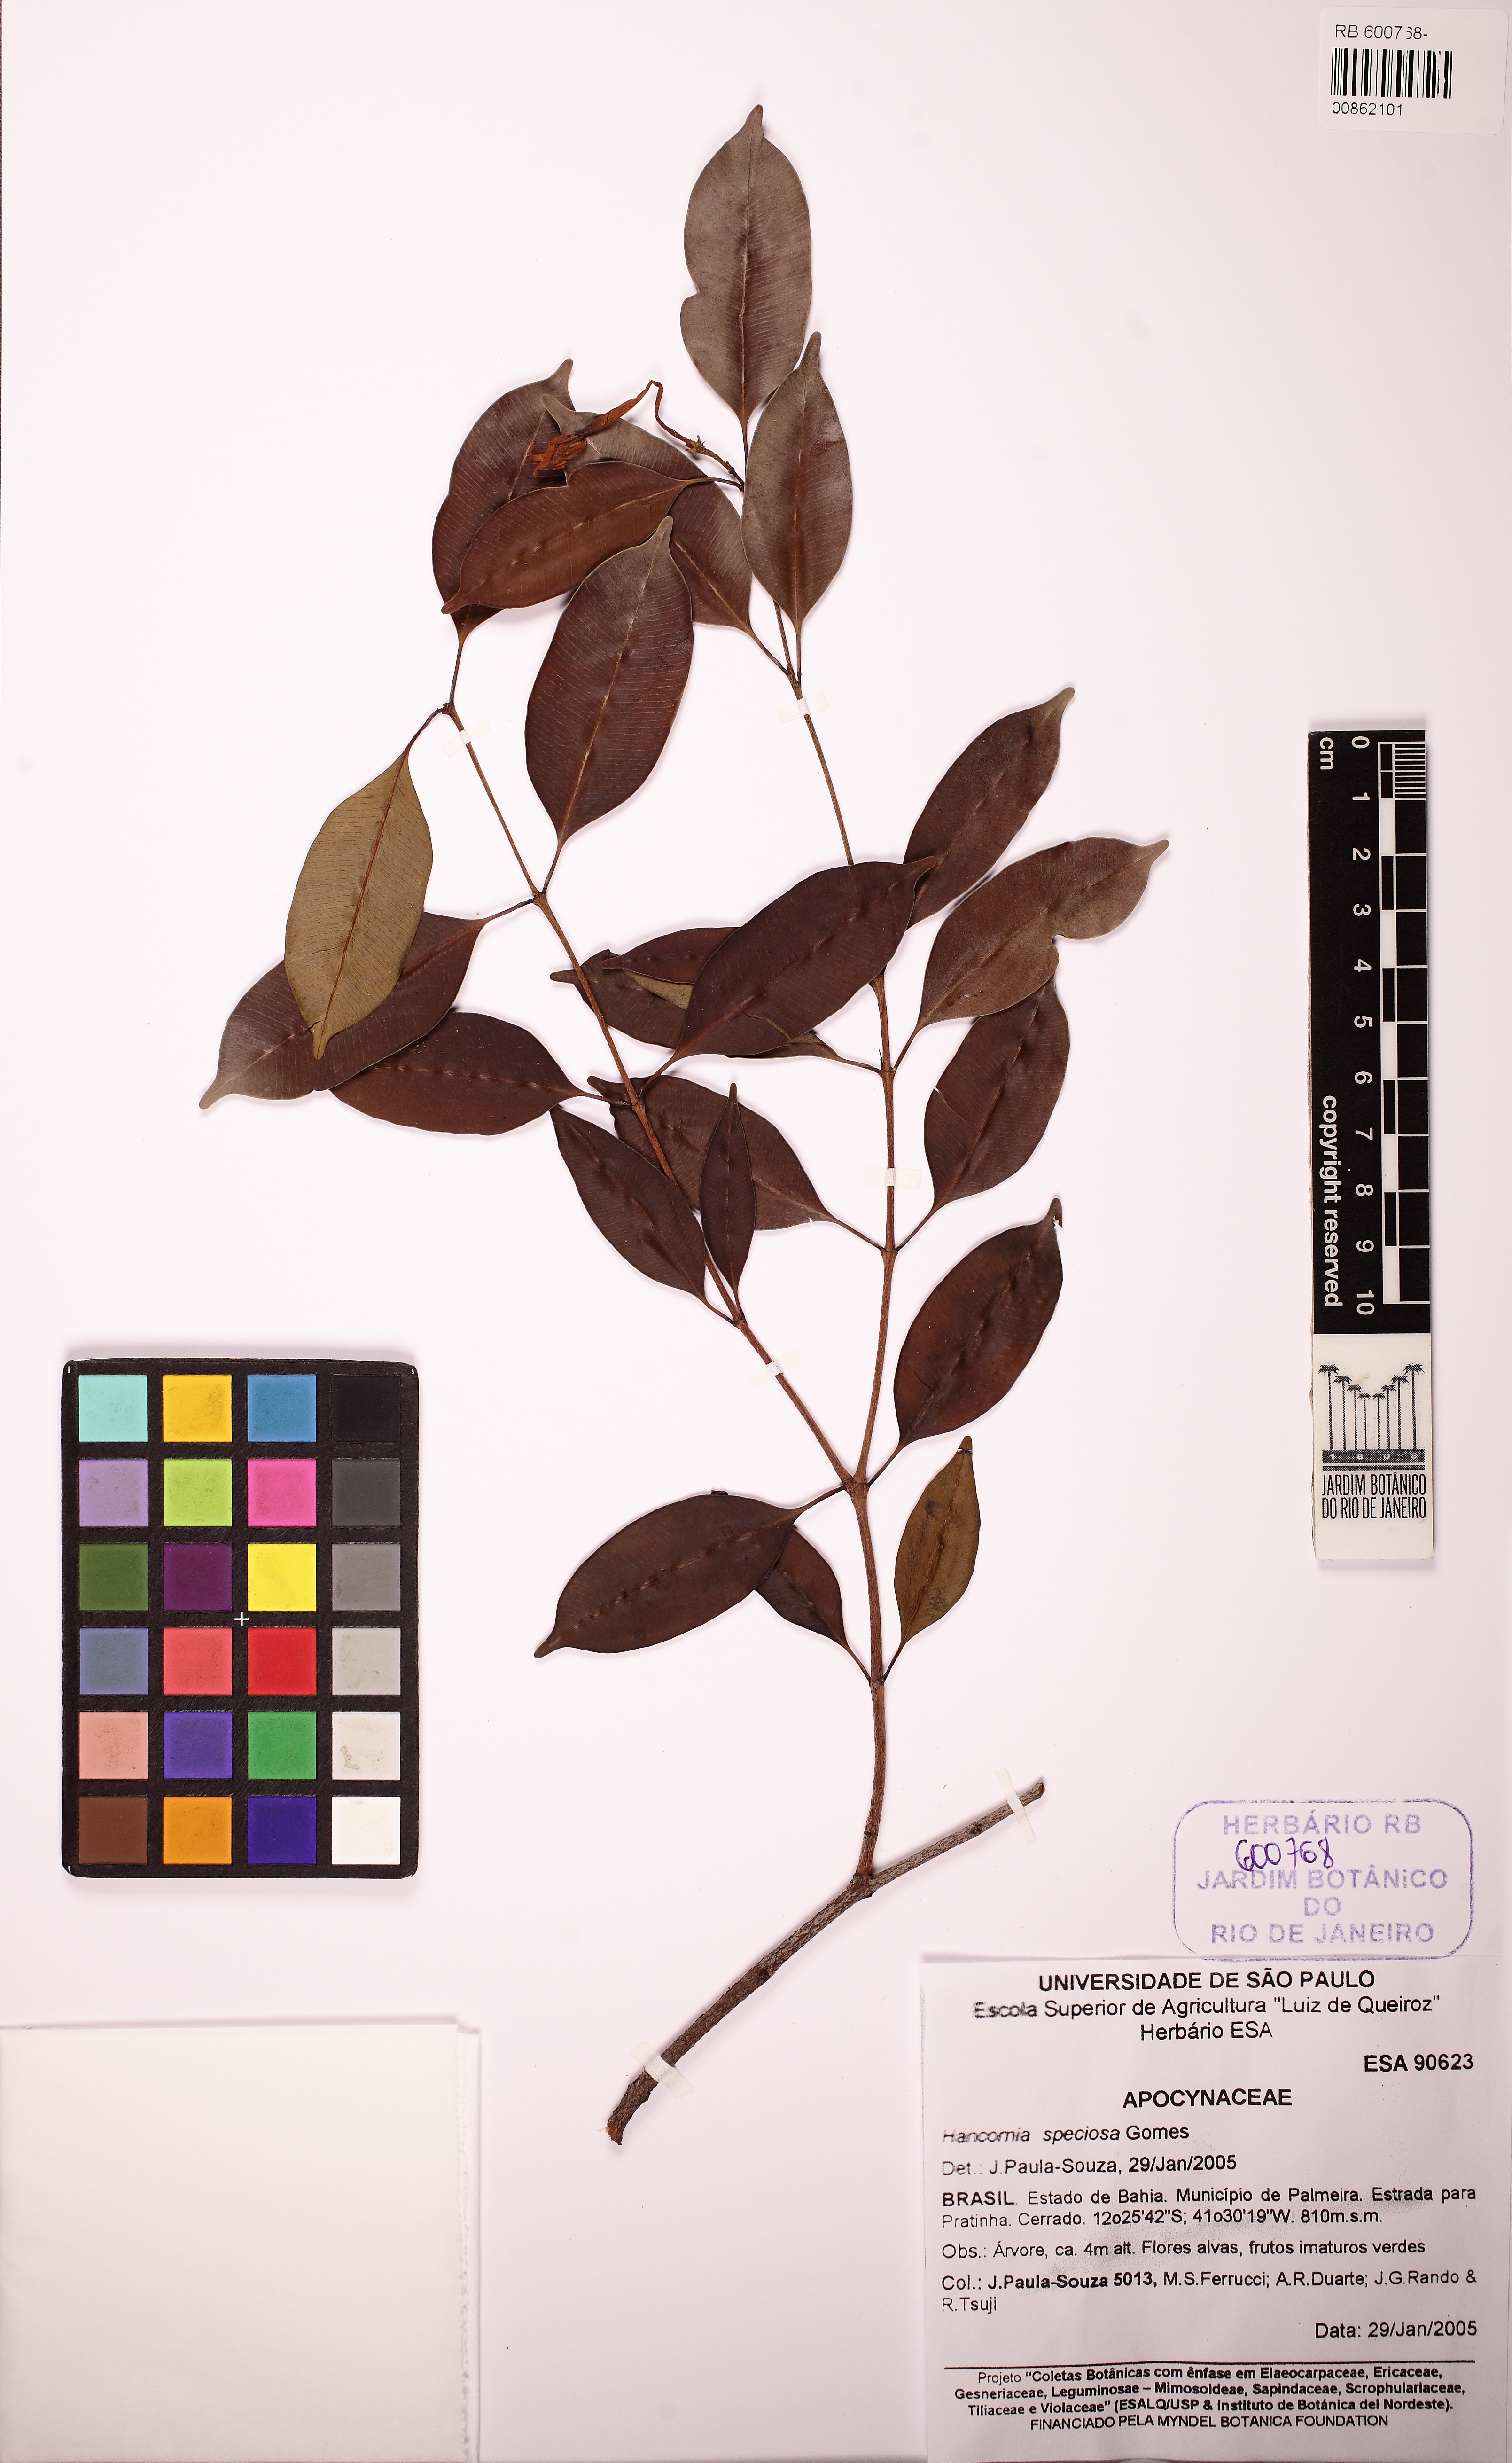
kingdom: Plantae
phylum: Tracheophyta
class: Magnoliopsida
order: Gentianales
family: Apocynaceae
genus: Hancornia
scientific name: Hancornia speciosa
